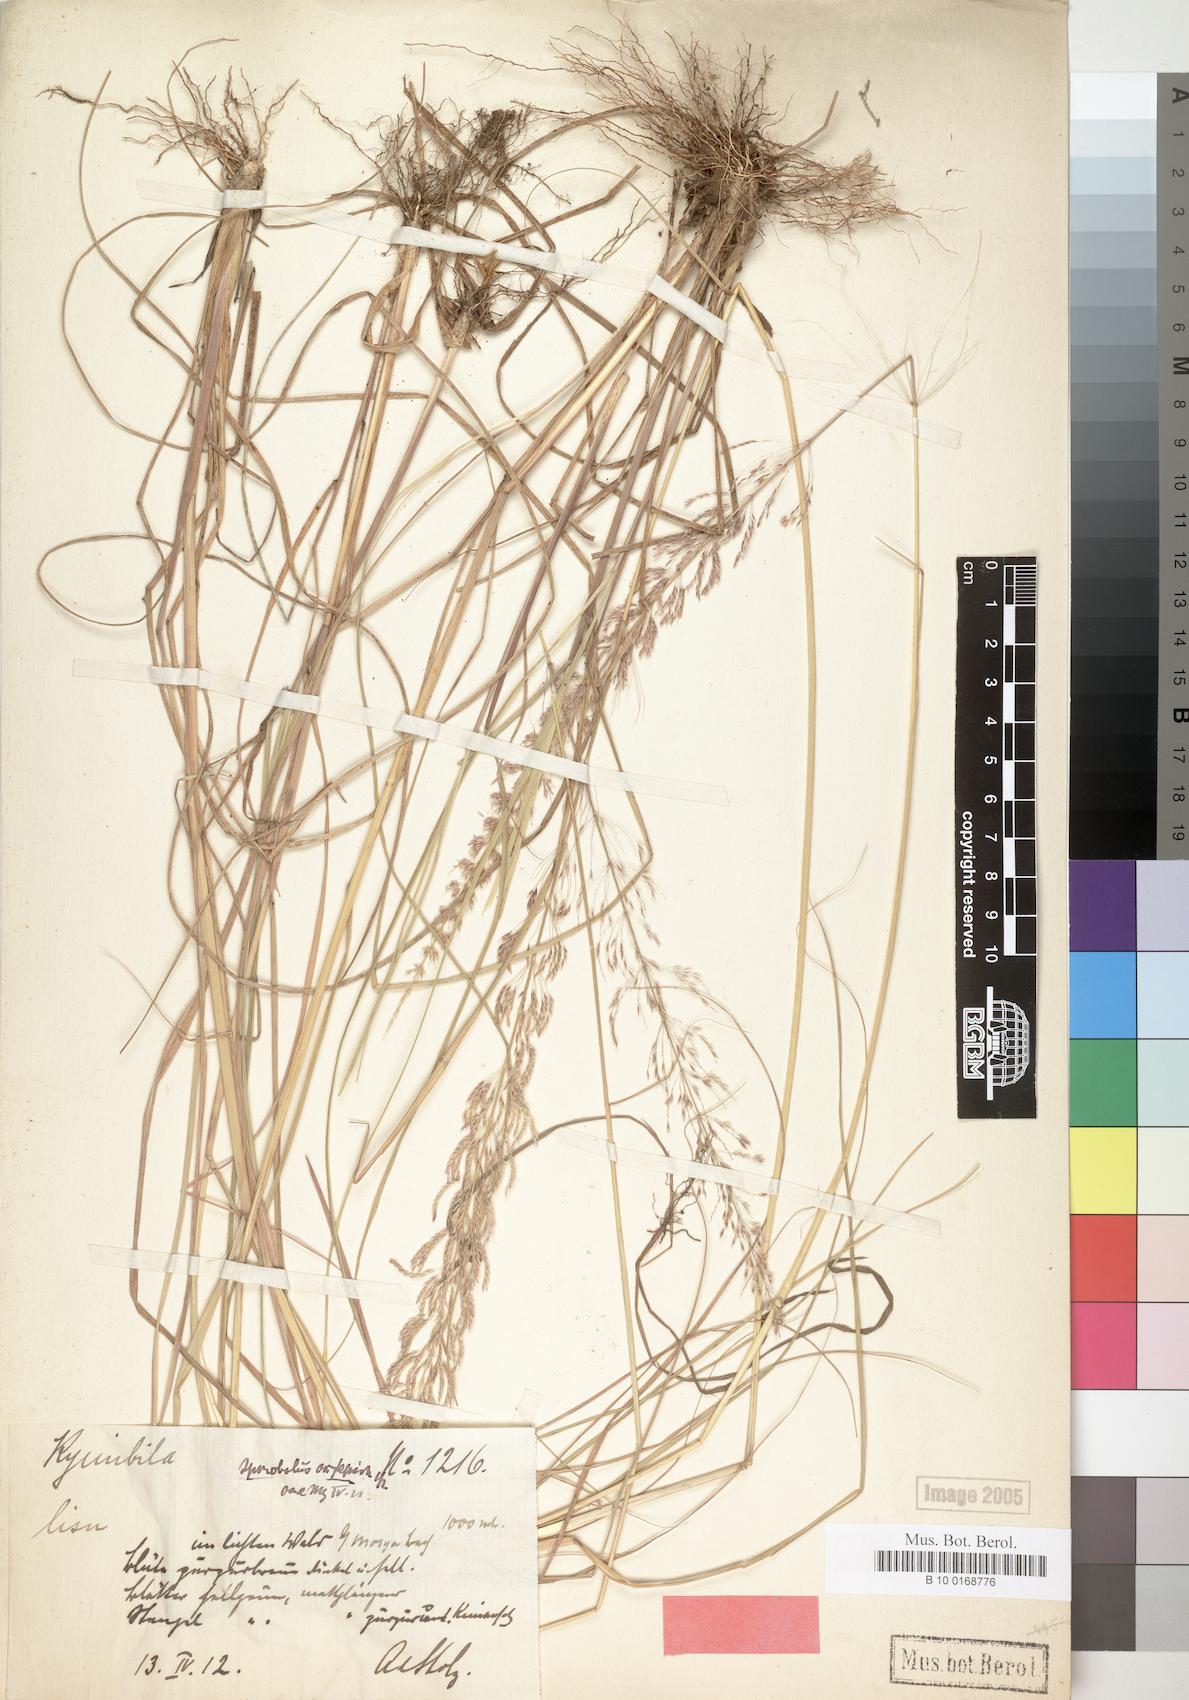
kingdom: Plantae
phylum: Tracheophyta
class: Liliopsida
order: Poales
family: Poaceae
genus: Sporobolus
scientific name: Sporobolus sanguineus
